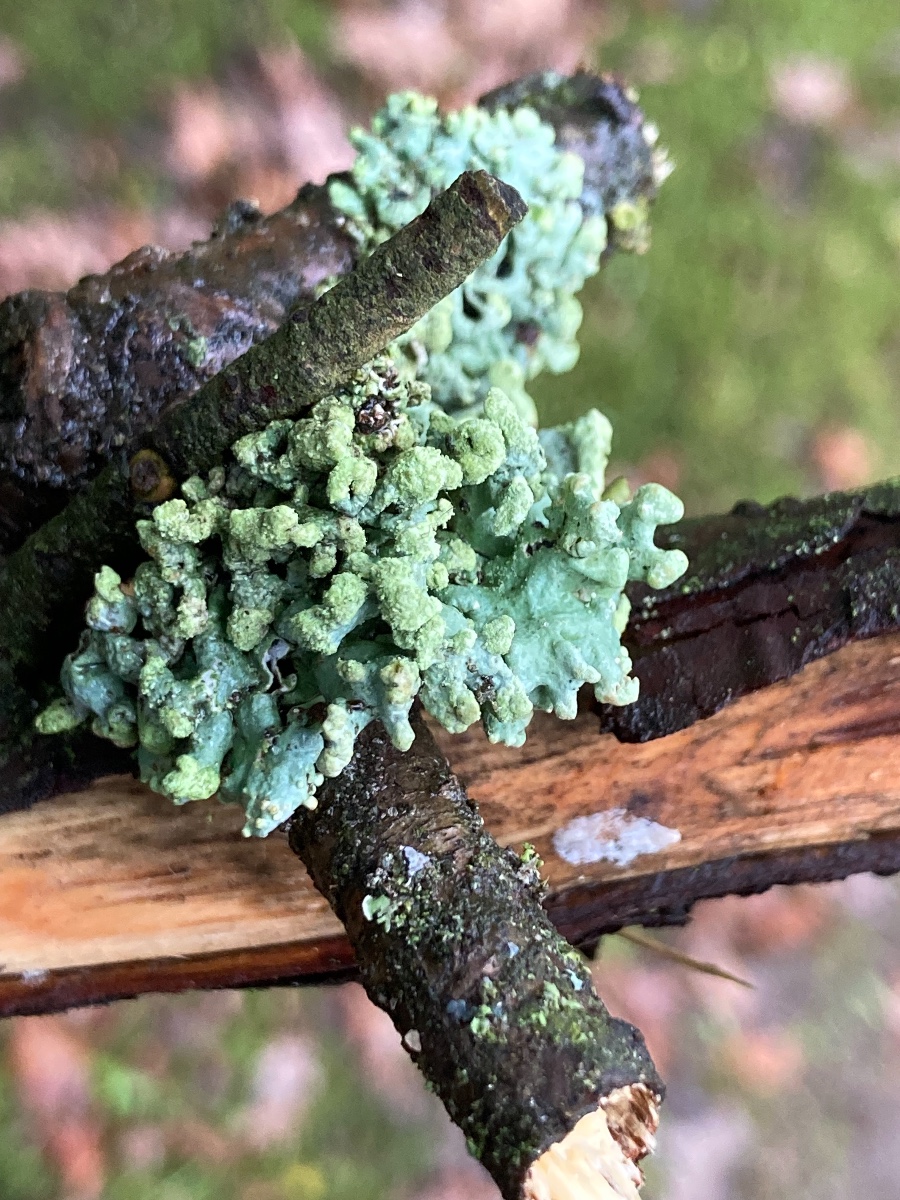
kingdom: Fungi
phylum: Ascomycota
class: Lecanoromycetes
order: Lecanorales
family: Parmeliaceae
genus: Hypogymnia
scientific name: Hypogymnia tubulosa
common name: finger-kvistlav
